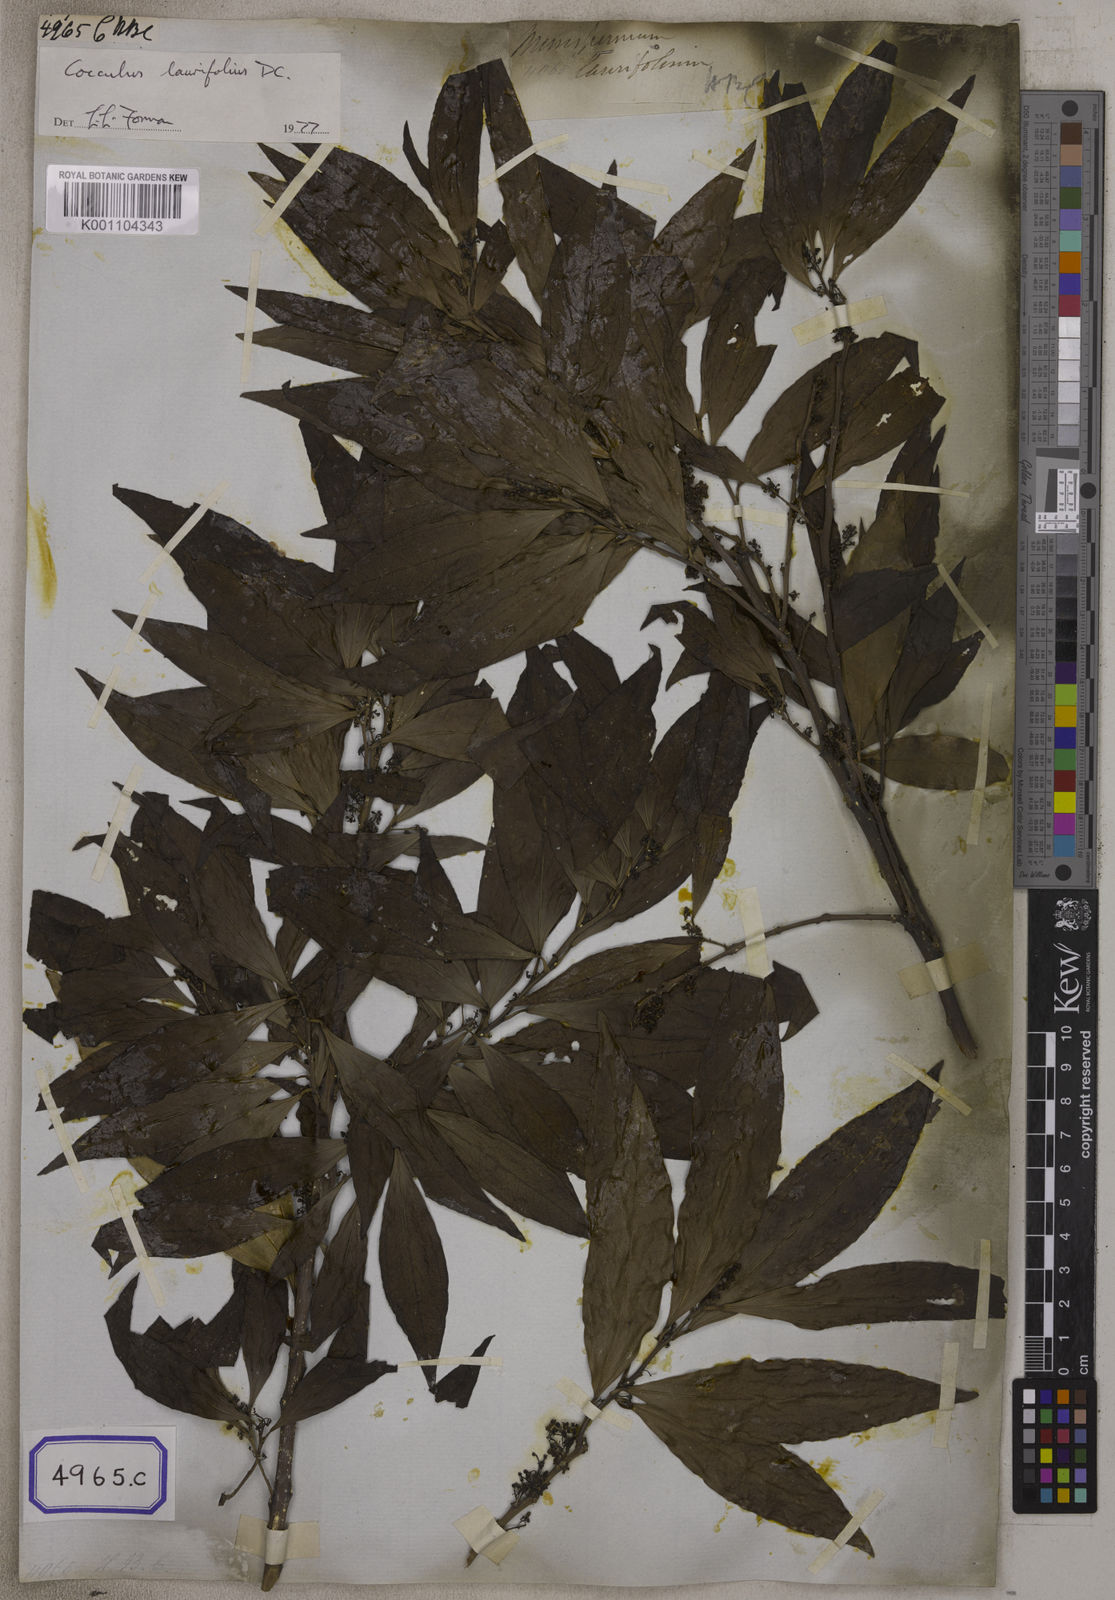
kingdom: Plantae
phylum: Tracheophyta
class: Magnoliopsida
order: Ranunculales
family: Menispermaceae
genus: Cocculus
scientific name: Cocculus laurifolius
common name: Laurel-leaf snailseed
